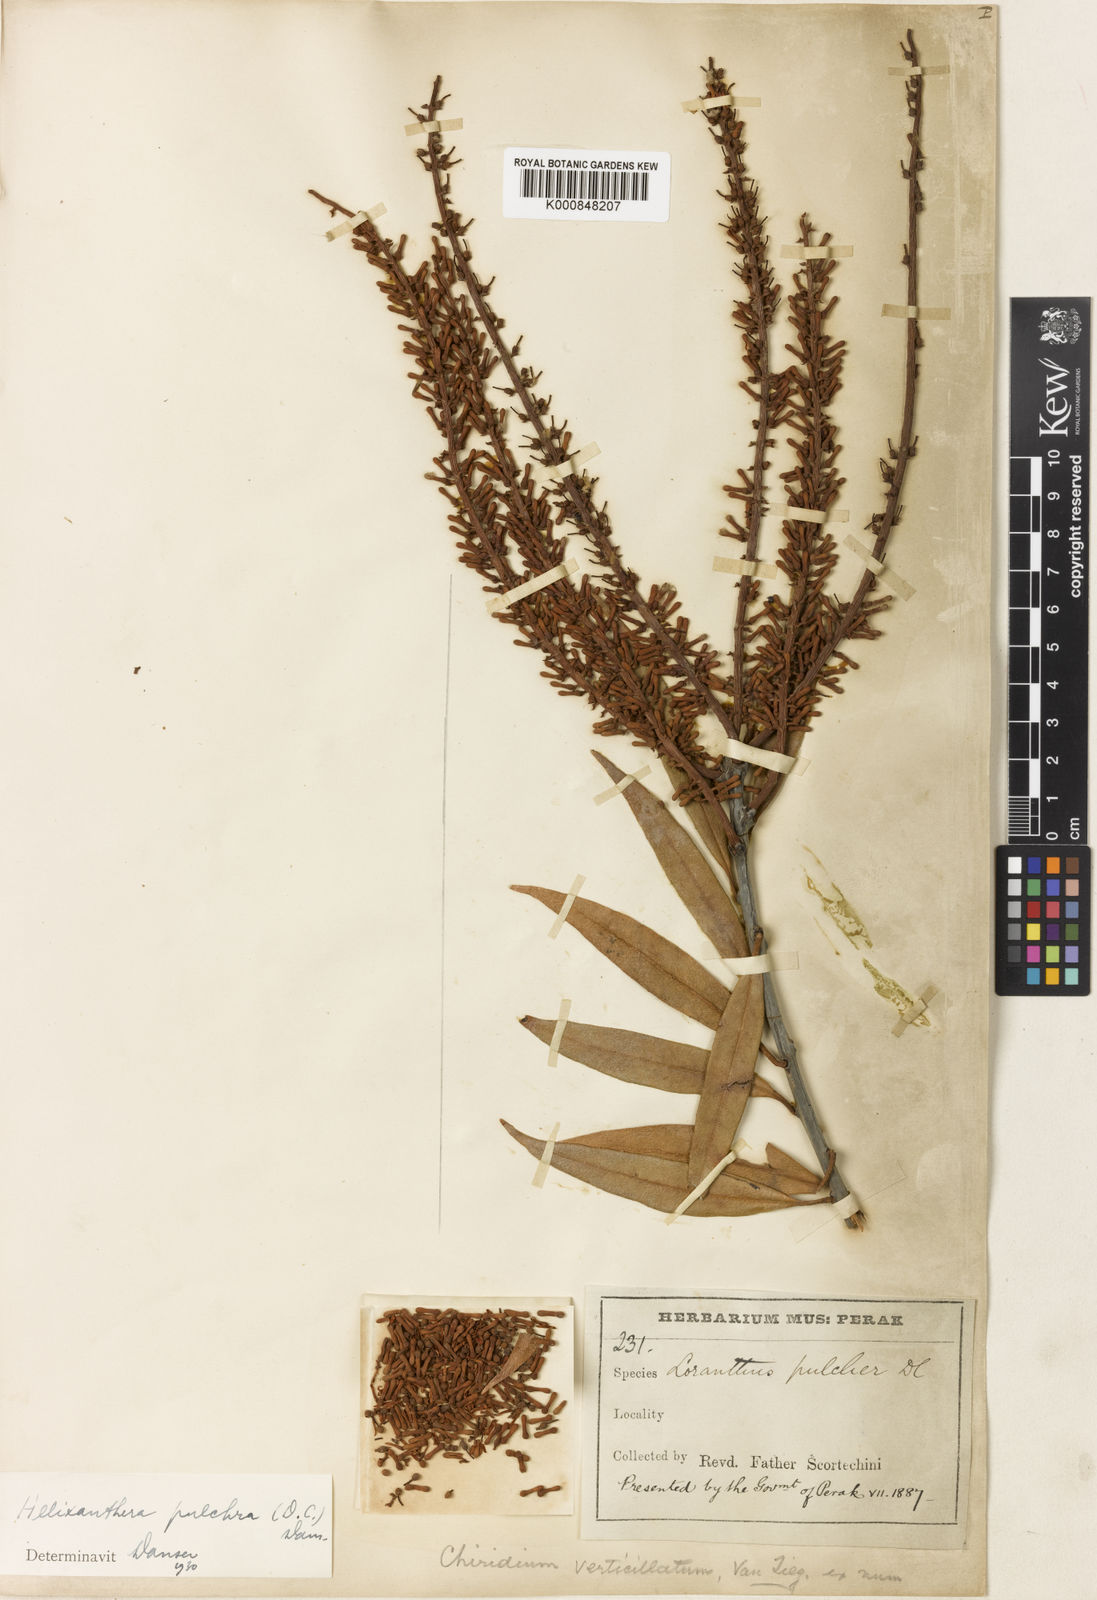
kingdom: Plantae
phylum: Tracheophyta
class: Magnoliopsida
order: Santalales
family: Loranthaceae
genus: Helixanthera
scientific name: Helixanthera pulchra
